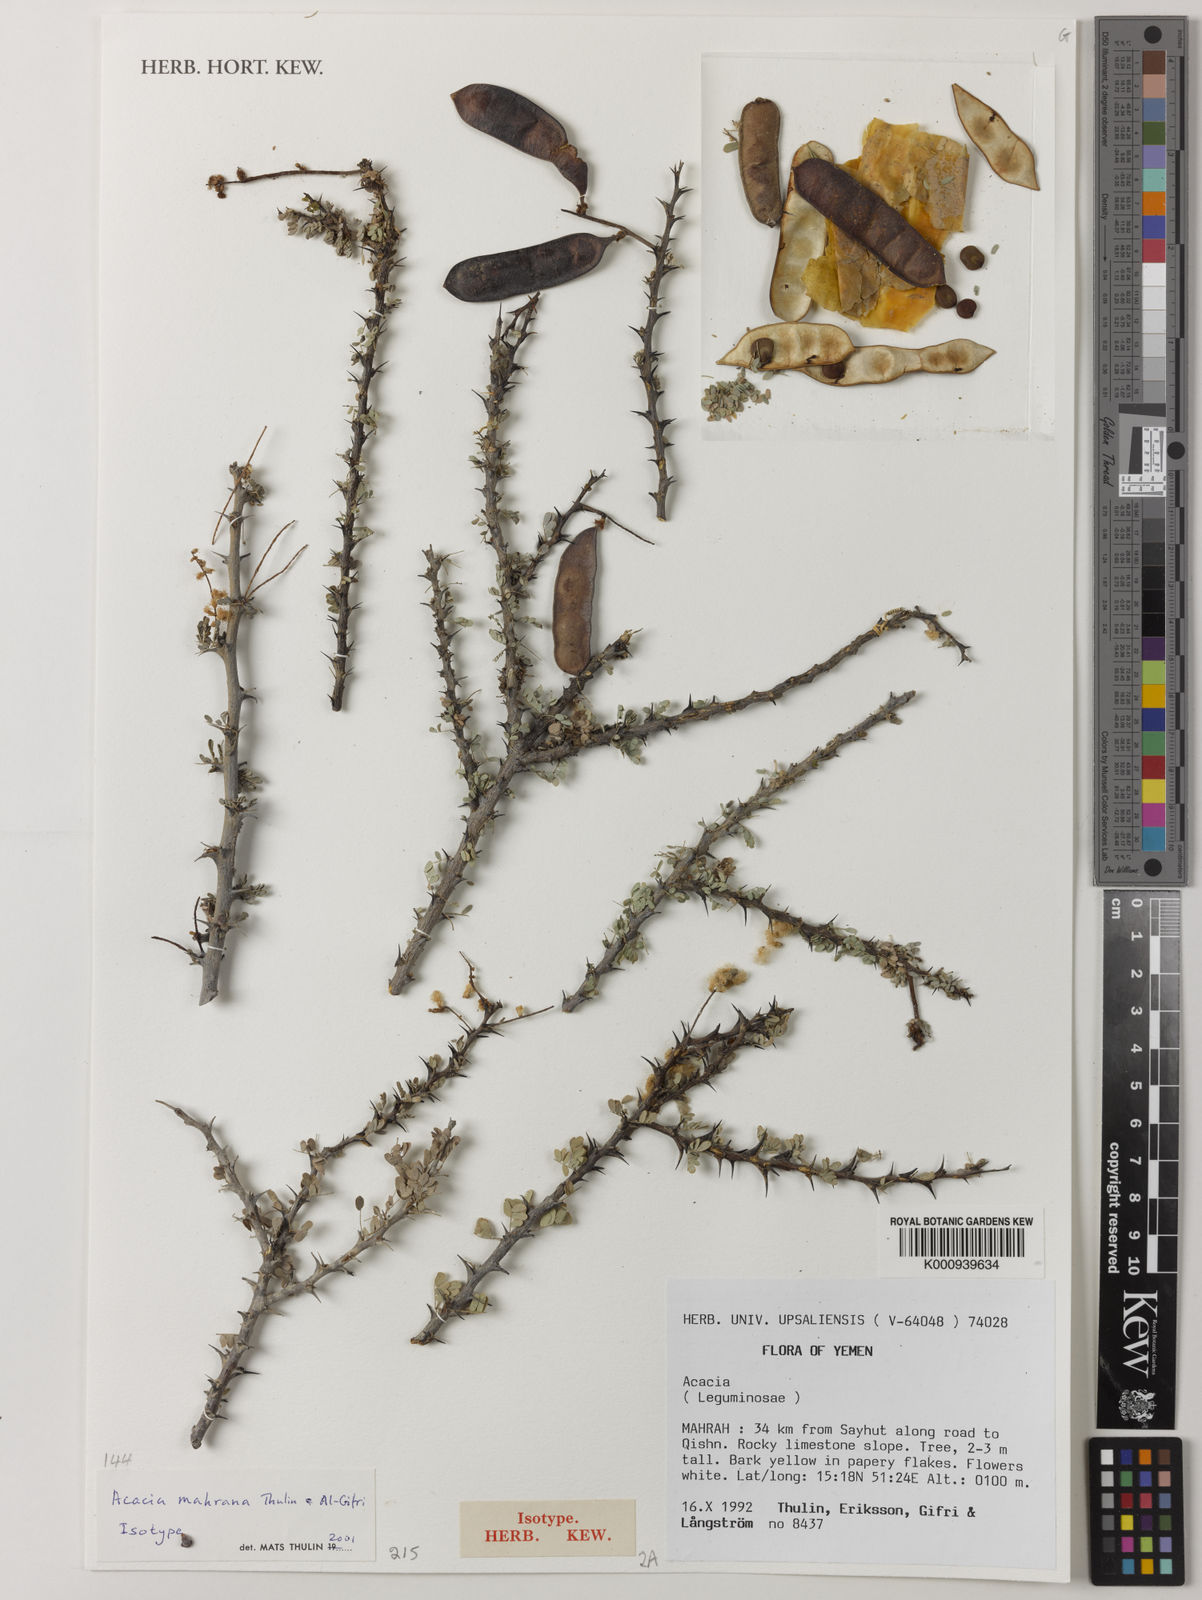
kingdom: Plantae
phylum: Tracheophyta
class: Magnoliopsida
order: Fabales
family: Fabaceae
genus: Senegalia
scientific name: Senegalia mahrana
